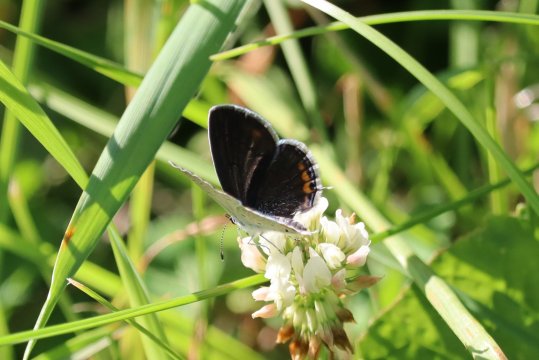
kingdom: Animalia
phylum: Arthropoda
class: Insecta
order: Lepidoptera
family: Lycaenidae
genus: Elkalyce
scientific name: Elkalyce comyntas
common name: Eastern Tailed-Blue
